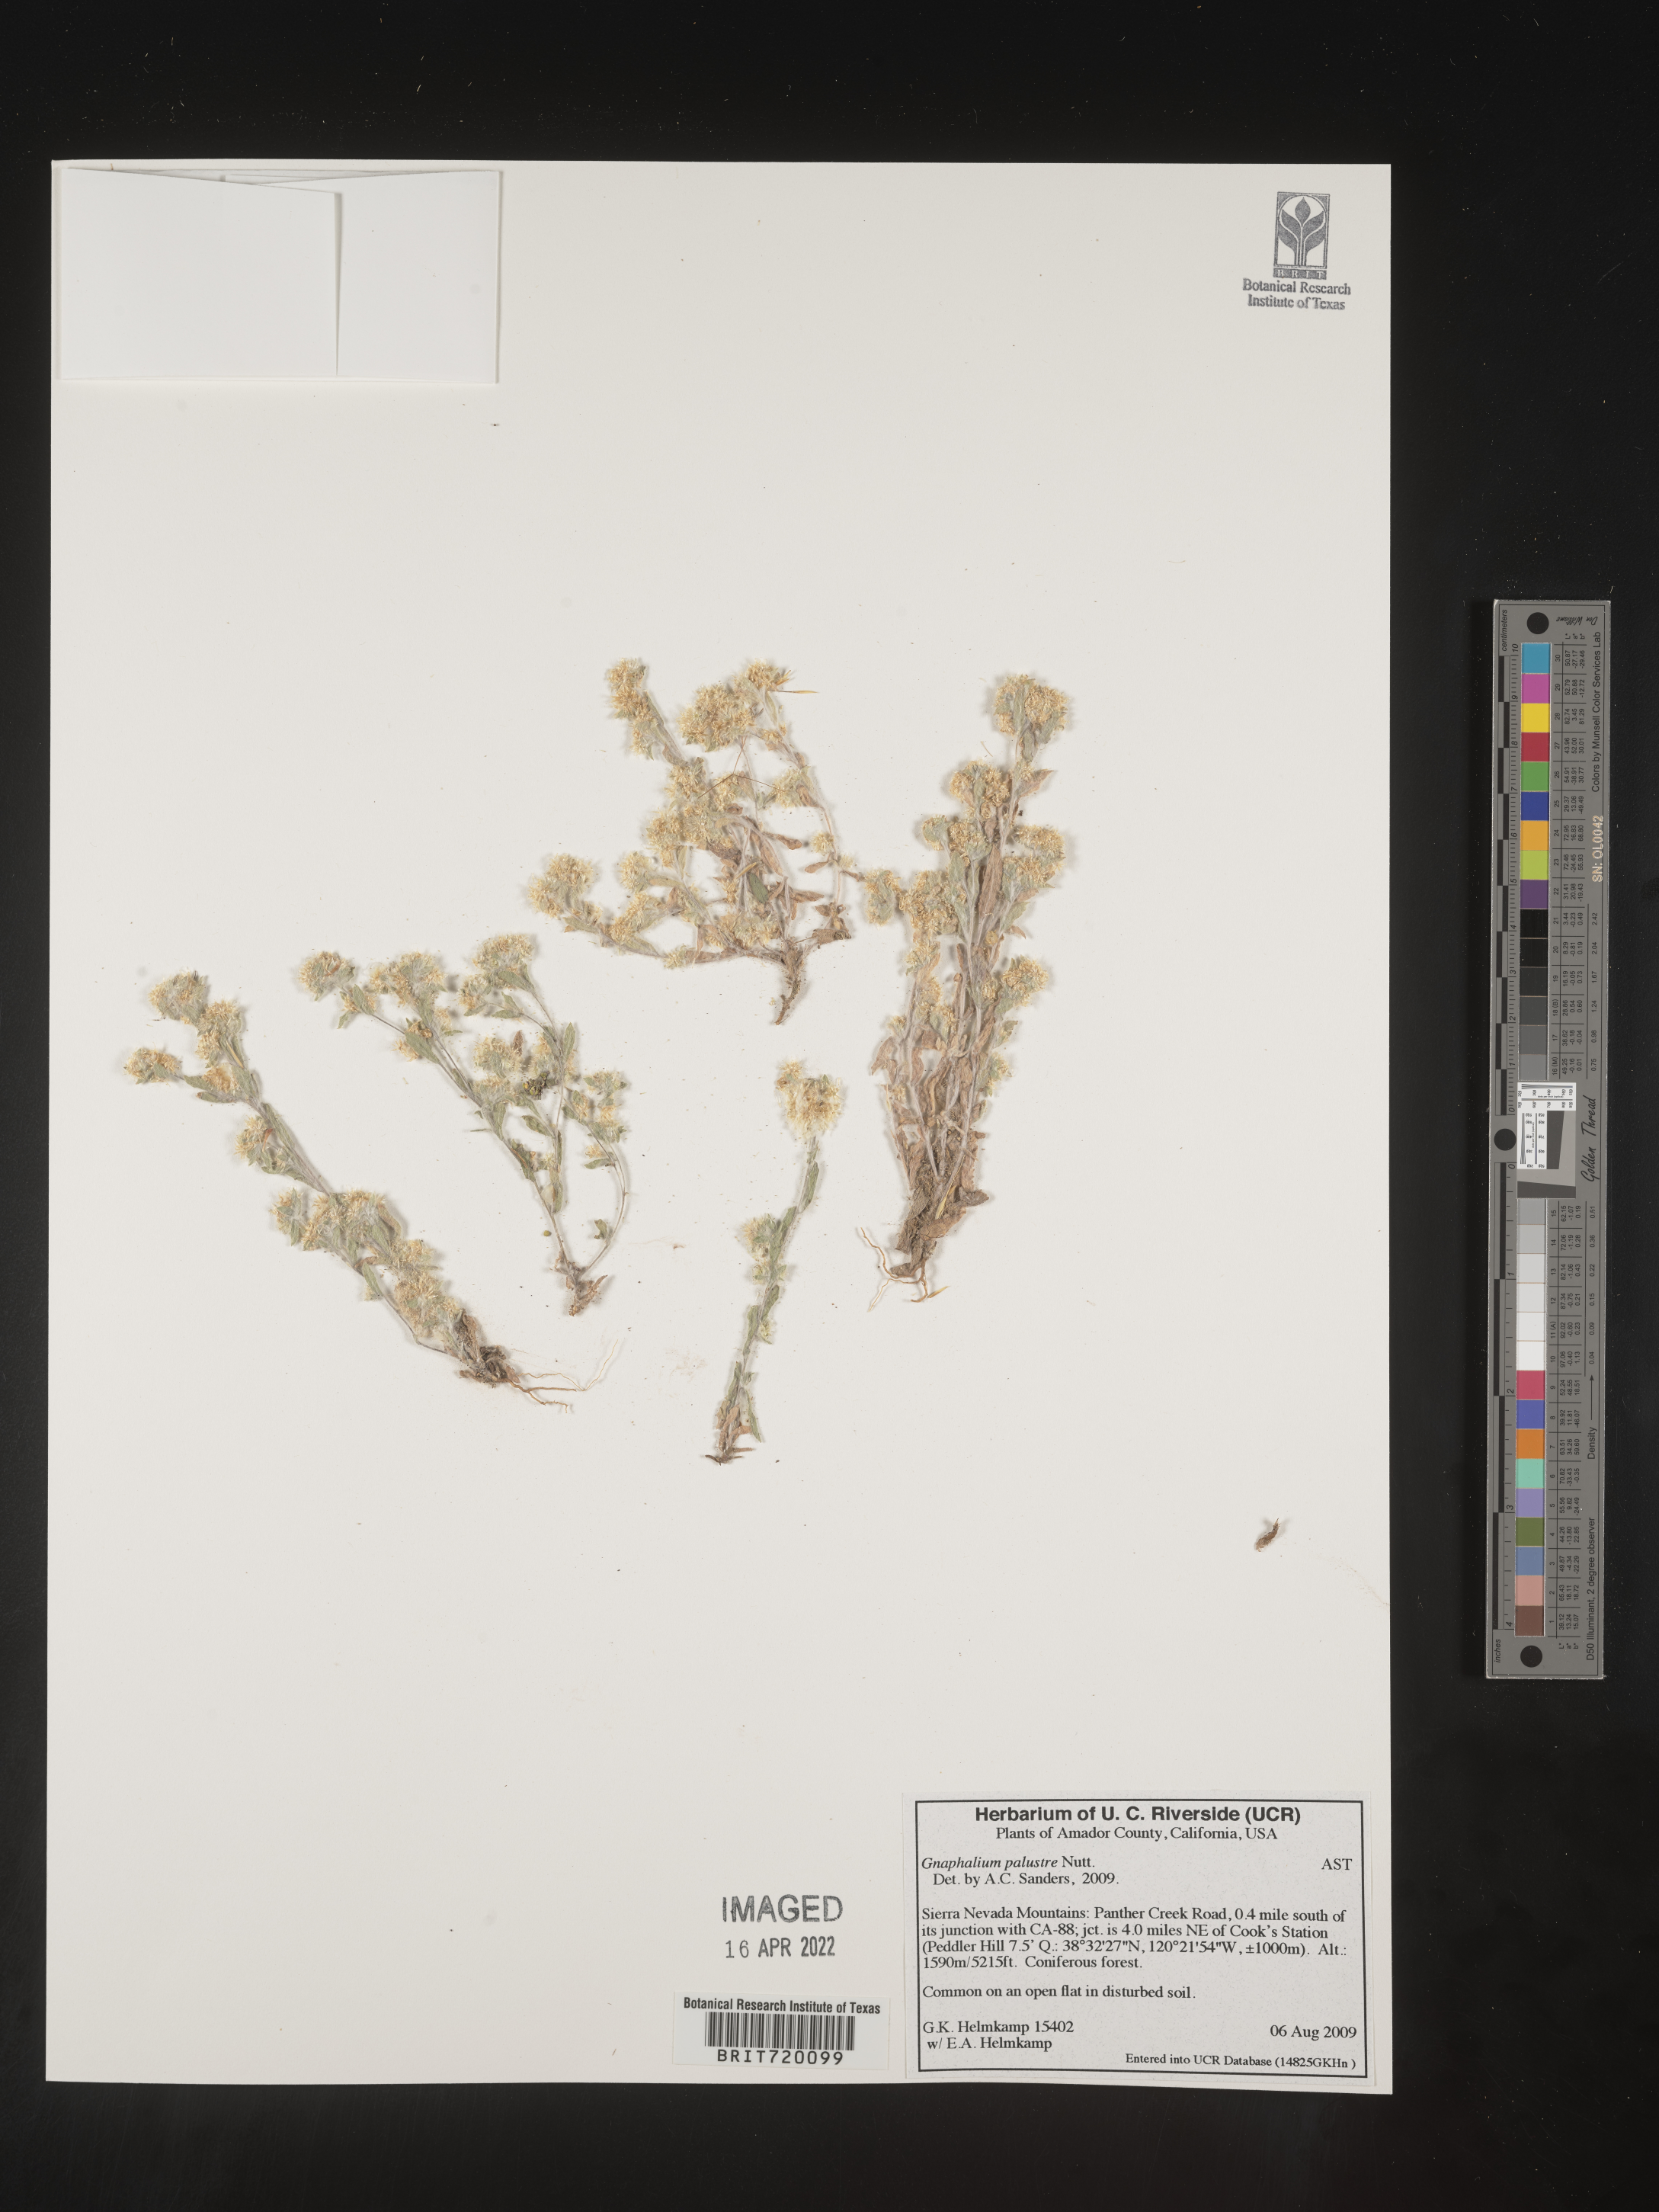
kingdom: Plantae
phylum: Tracheophyta
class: Magnoliopsida
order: Asterales
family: Asteraceae
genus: Gnaphalium
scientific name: Gnaphalium palustre
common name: Western marsh cudweed
